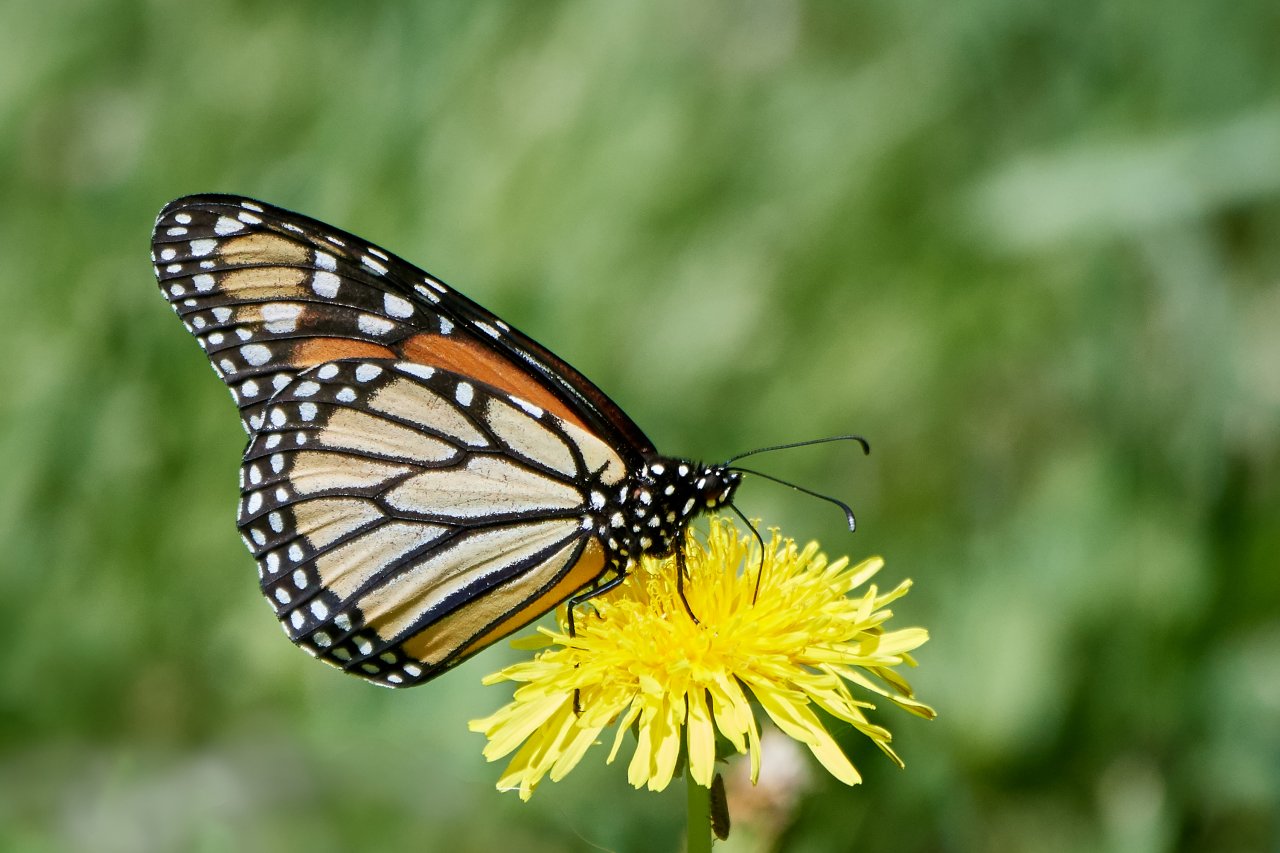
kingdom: Animalia
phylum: Arthropoda
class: Insecta
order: Lepidoptera
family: Nymphalidae
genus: Danaus
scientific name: Danaus plexippus
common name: Monarch
